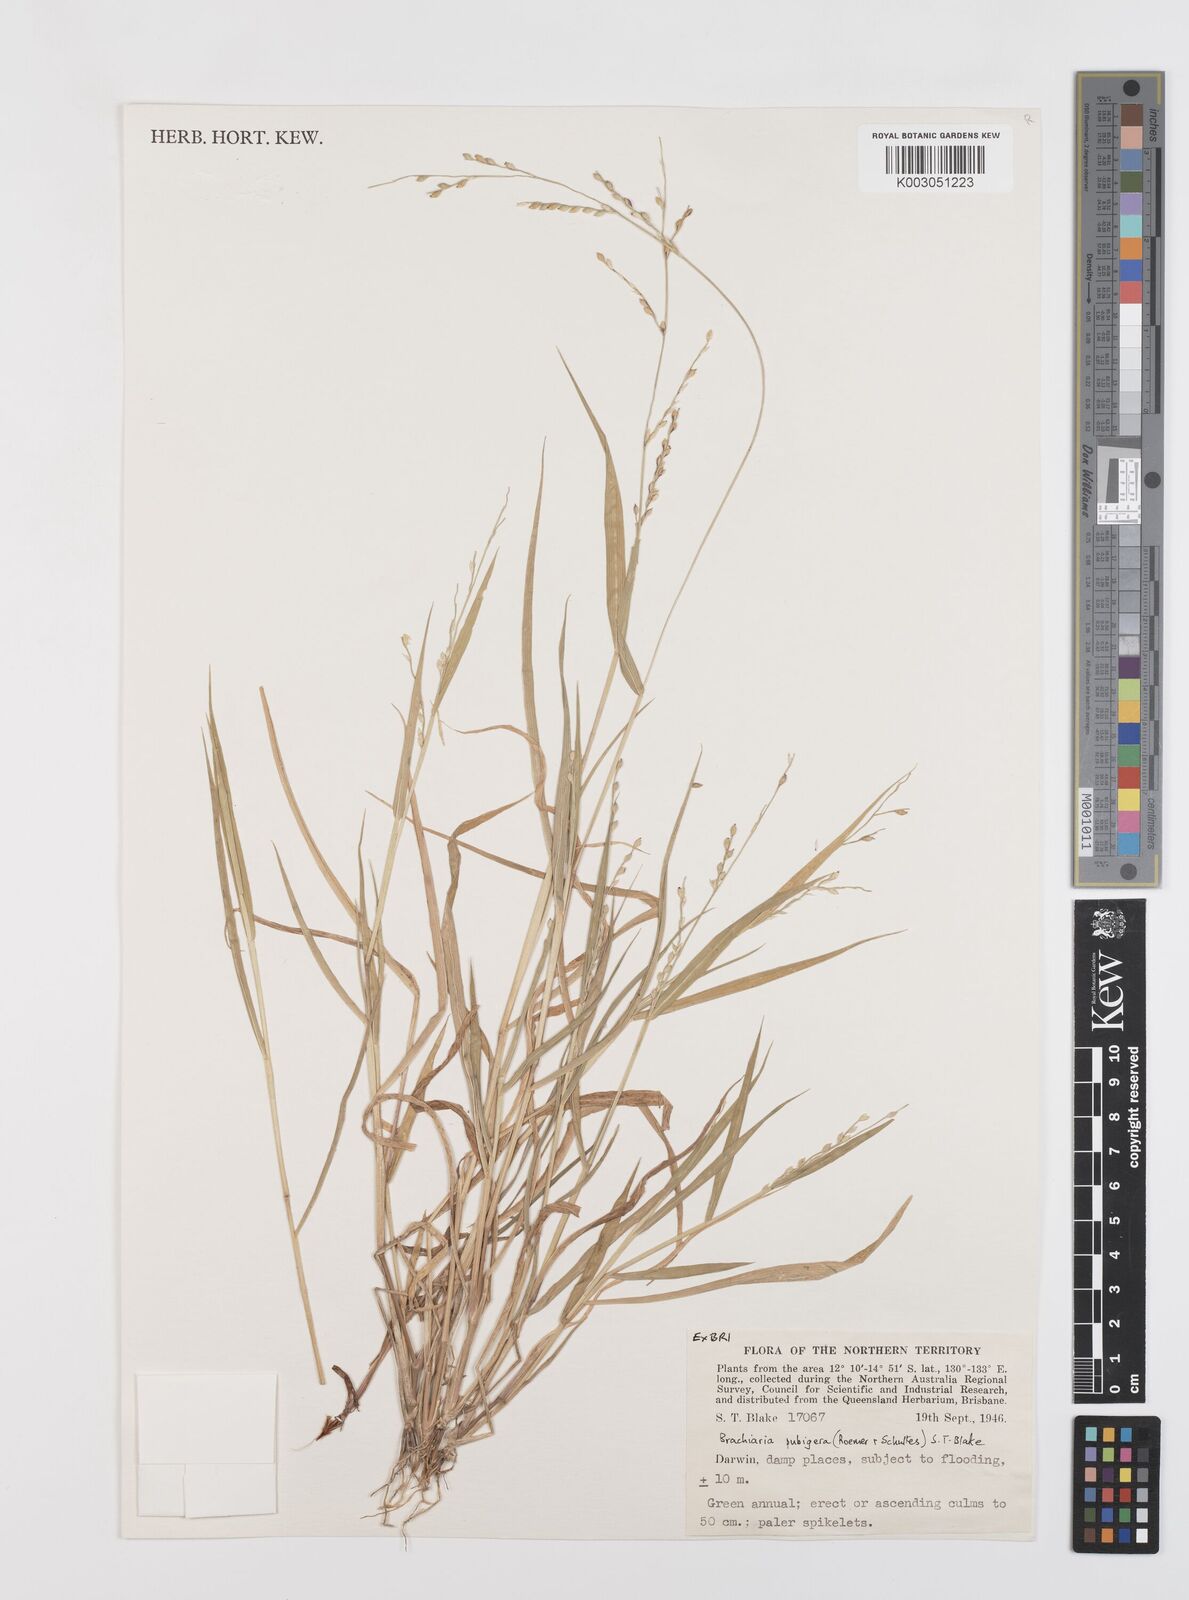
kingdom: Plantae
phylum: Tracheophyta
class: Liliopsida
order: Poales
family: Poaceae
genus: Urochloa
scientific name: Urochloa praetervisa
